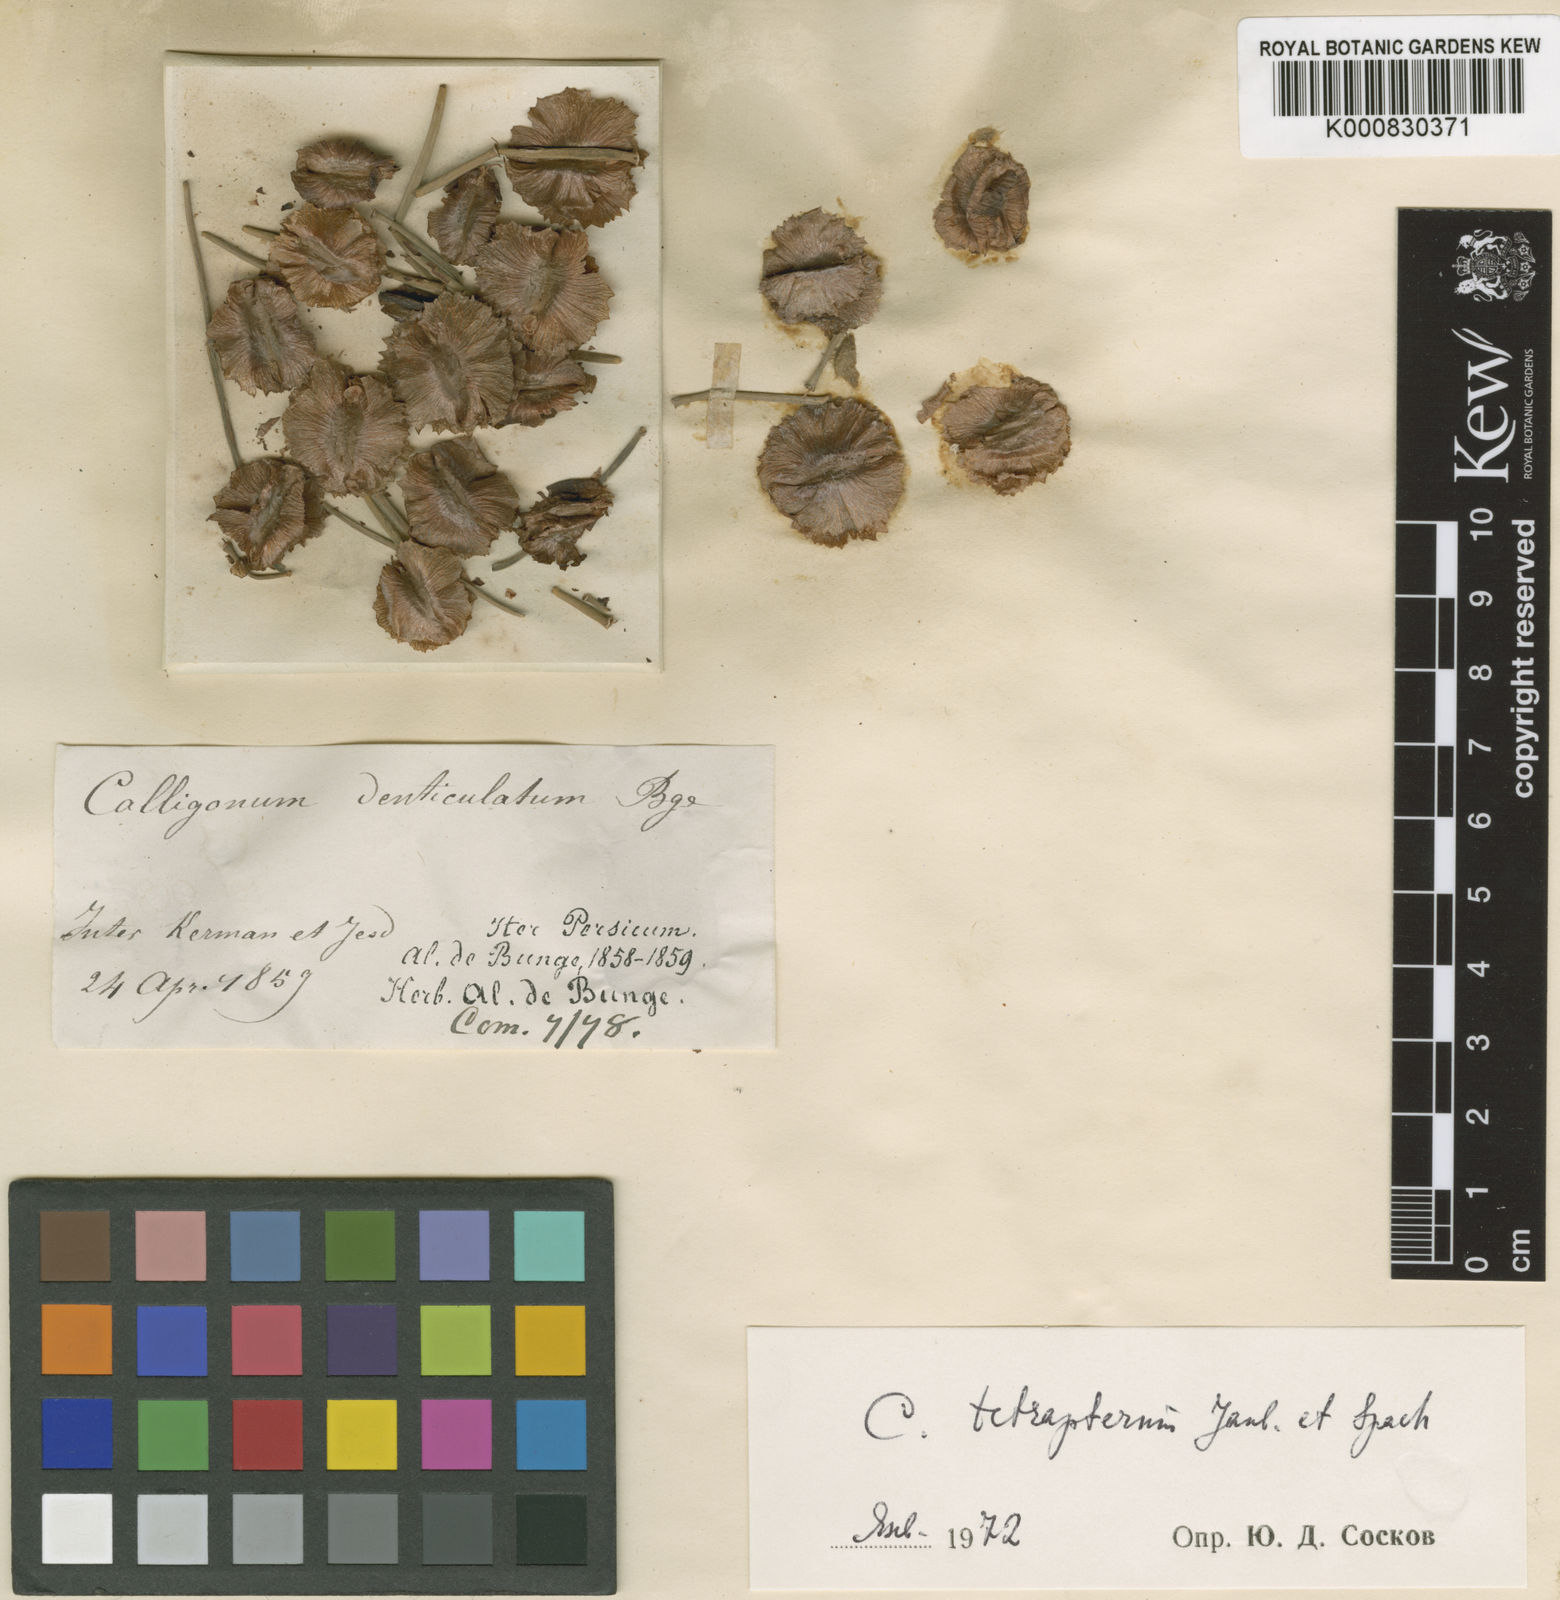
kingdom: Plantae
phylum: Tracheophyta
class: Magnoliopsida
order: Caryophyllales
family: Polygonaceae
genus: Calligonum
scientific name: Calligonum tetrapterum
